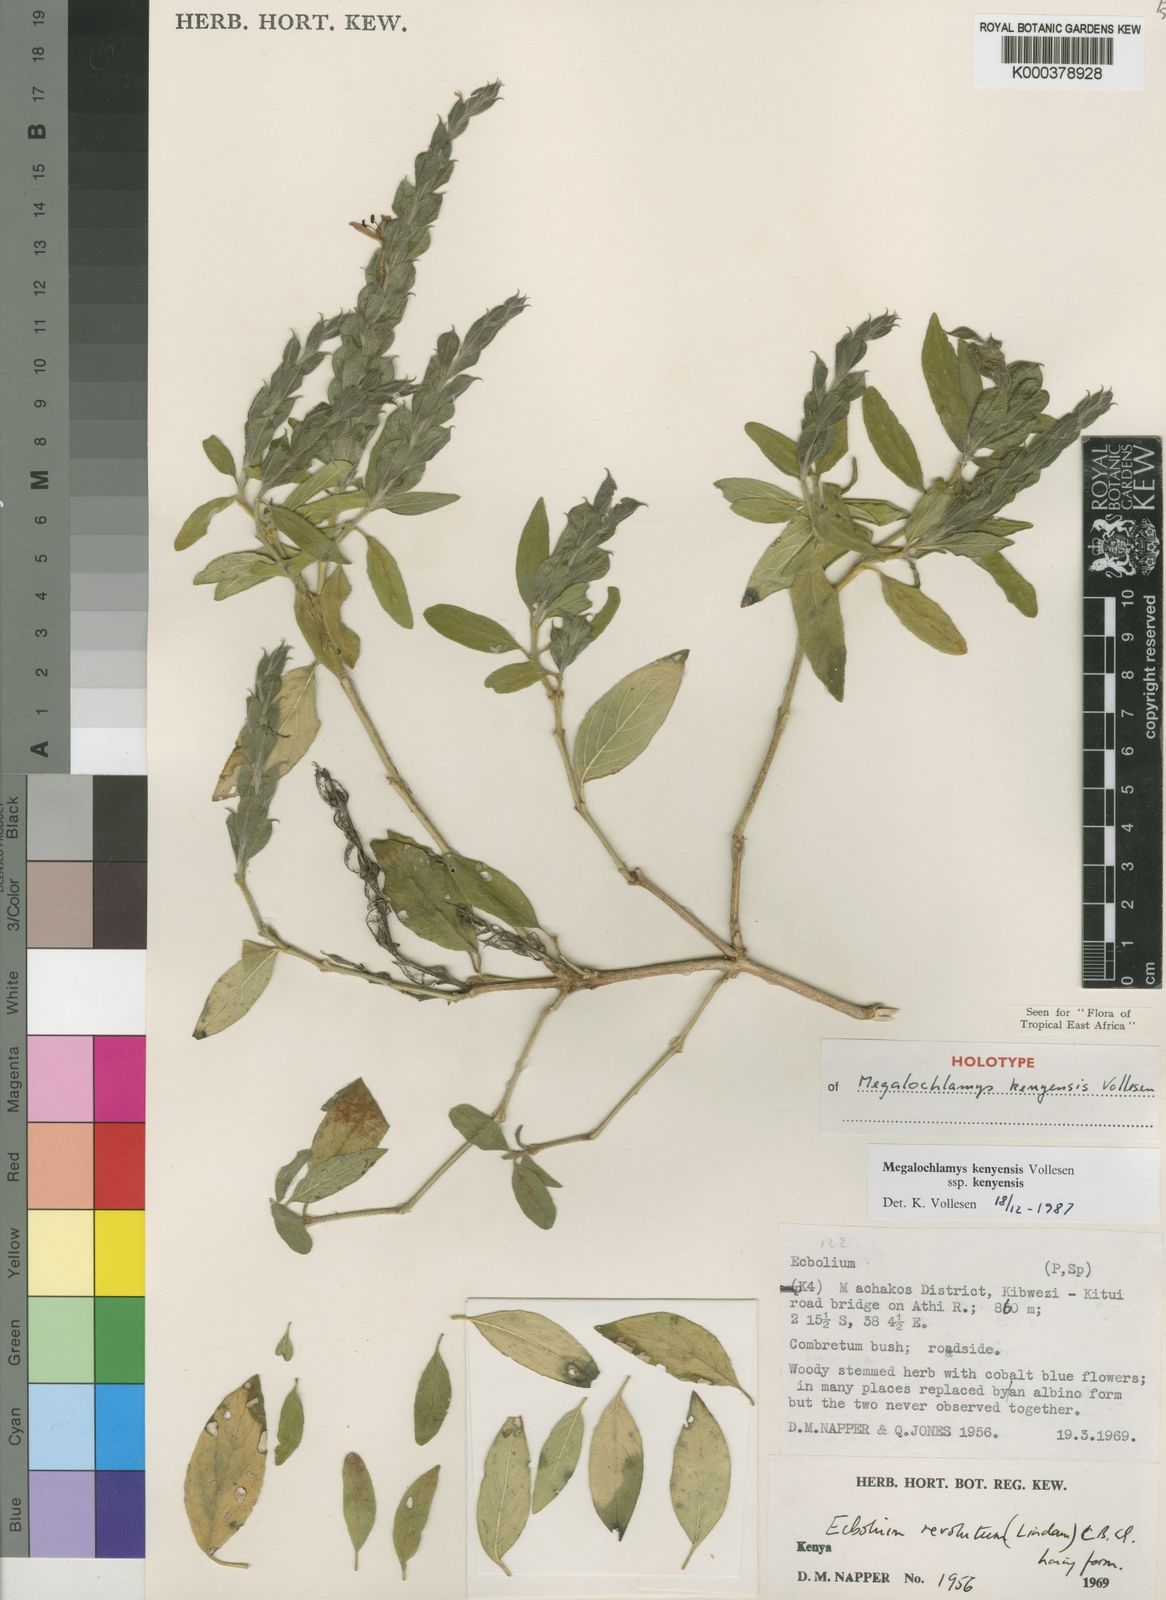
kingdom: Plantae
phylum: Tracheophyta
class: Magnoliopsida
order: Lamiales
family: Acanthaceae
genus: Megalochlamys
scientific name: Megalochlamys kenyensis
